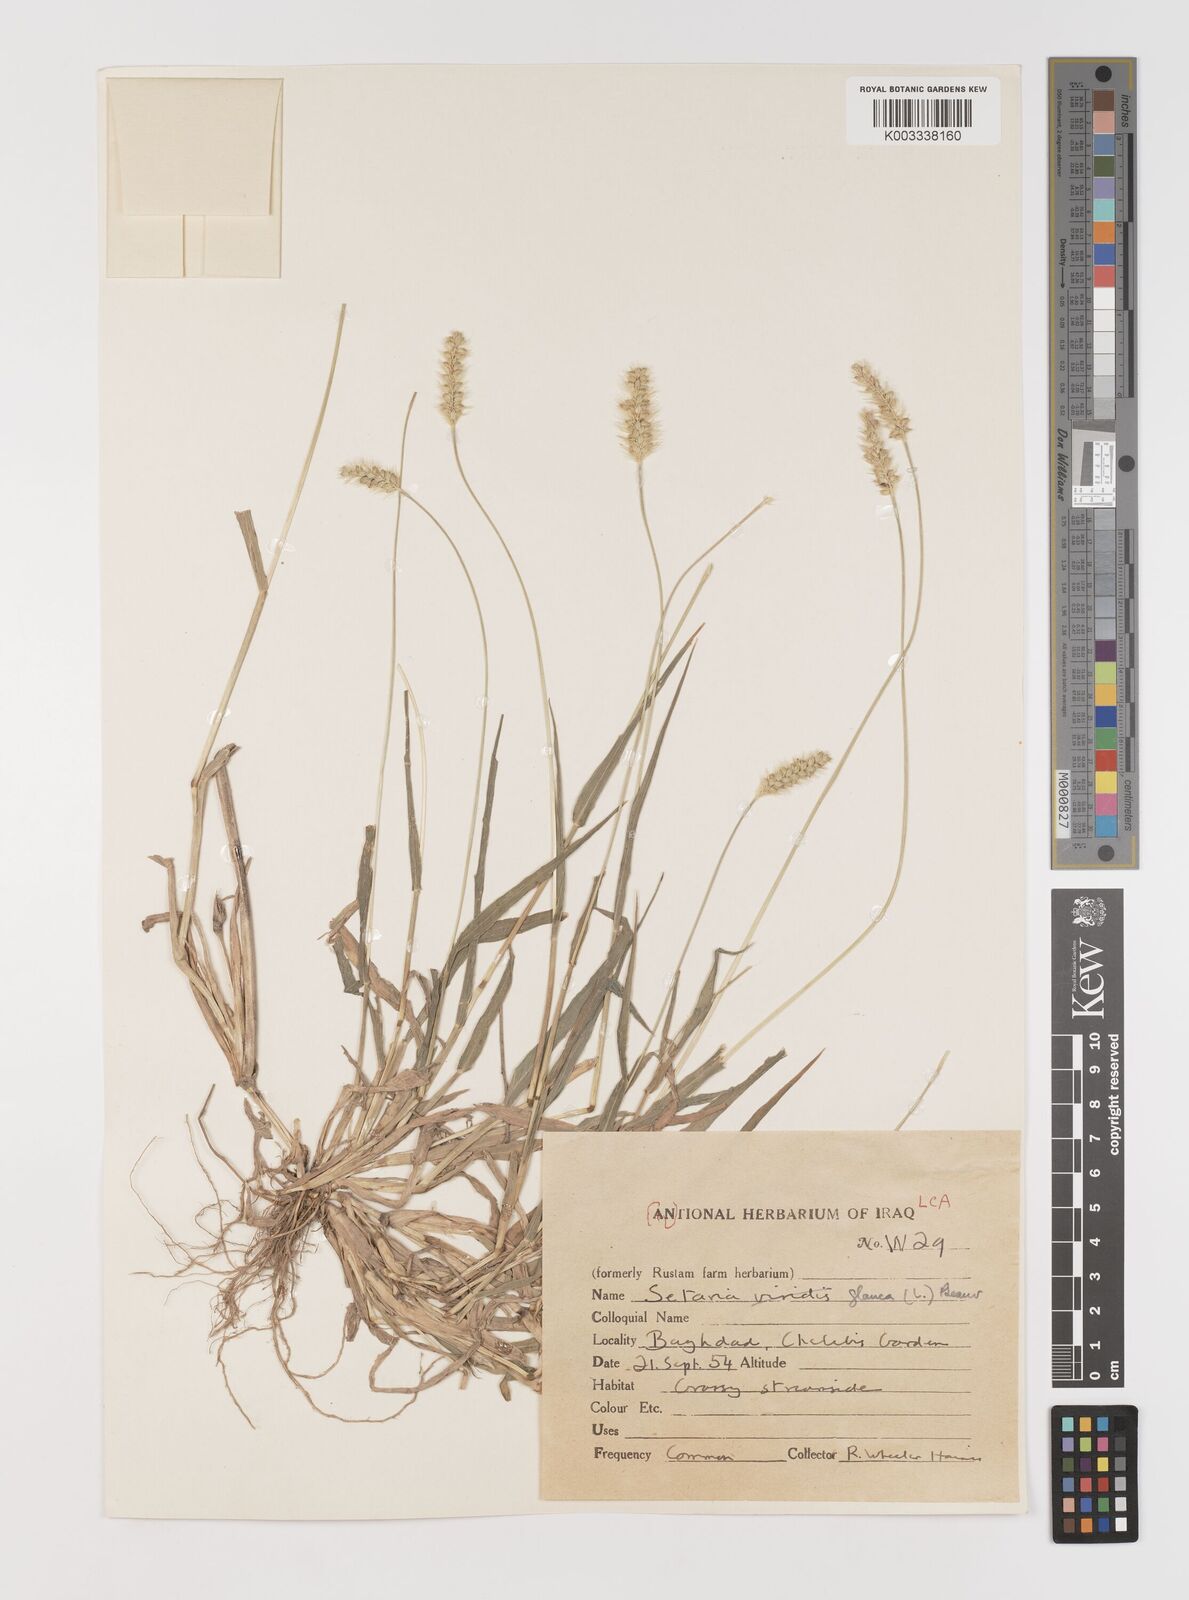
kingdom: Plantae
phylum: Tracheophyta
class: Liliopsida
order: Poales
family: Poaceae
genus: Setaria
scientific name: Setaria pumila
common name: Yellow bristle-grass
